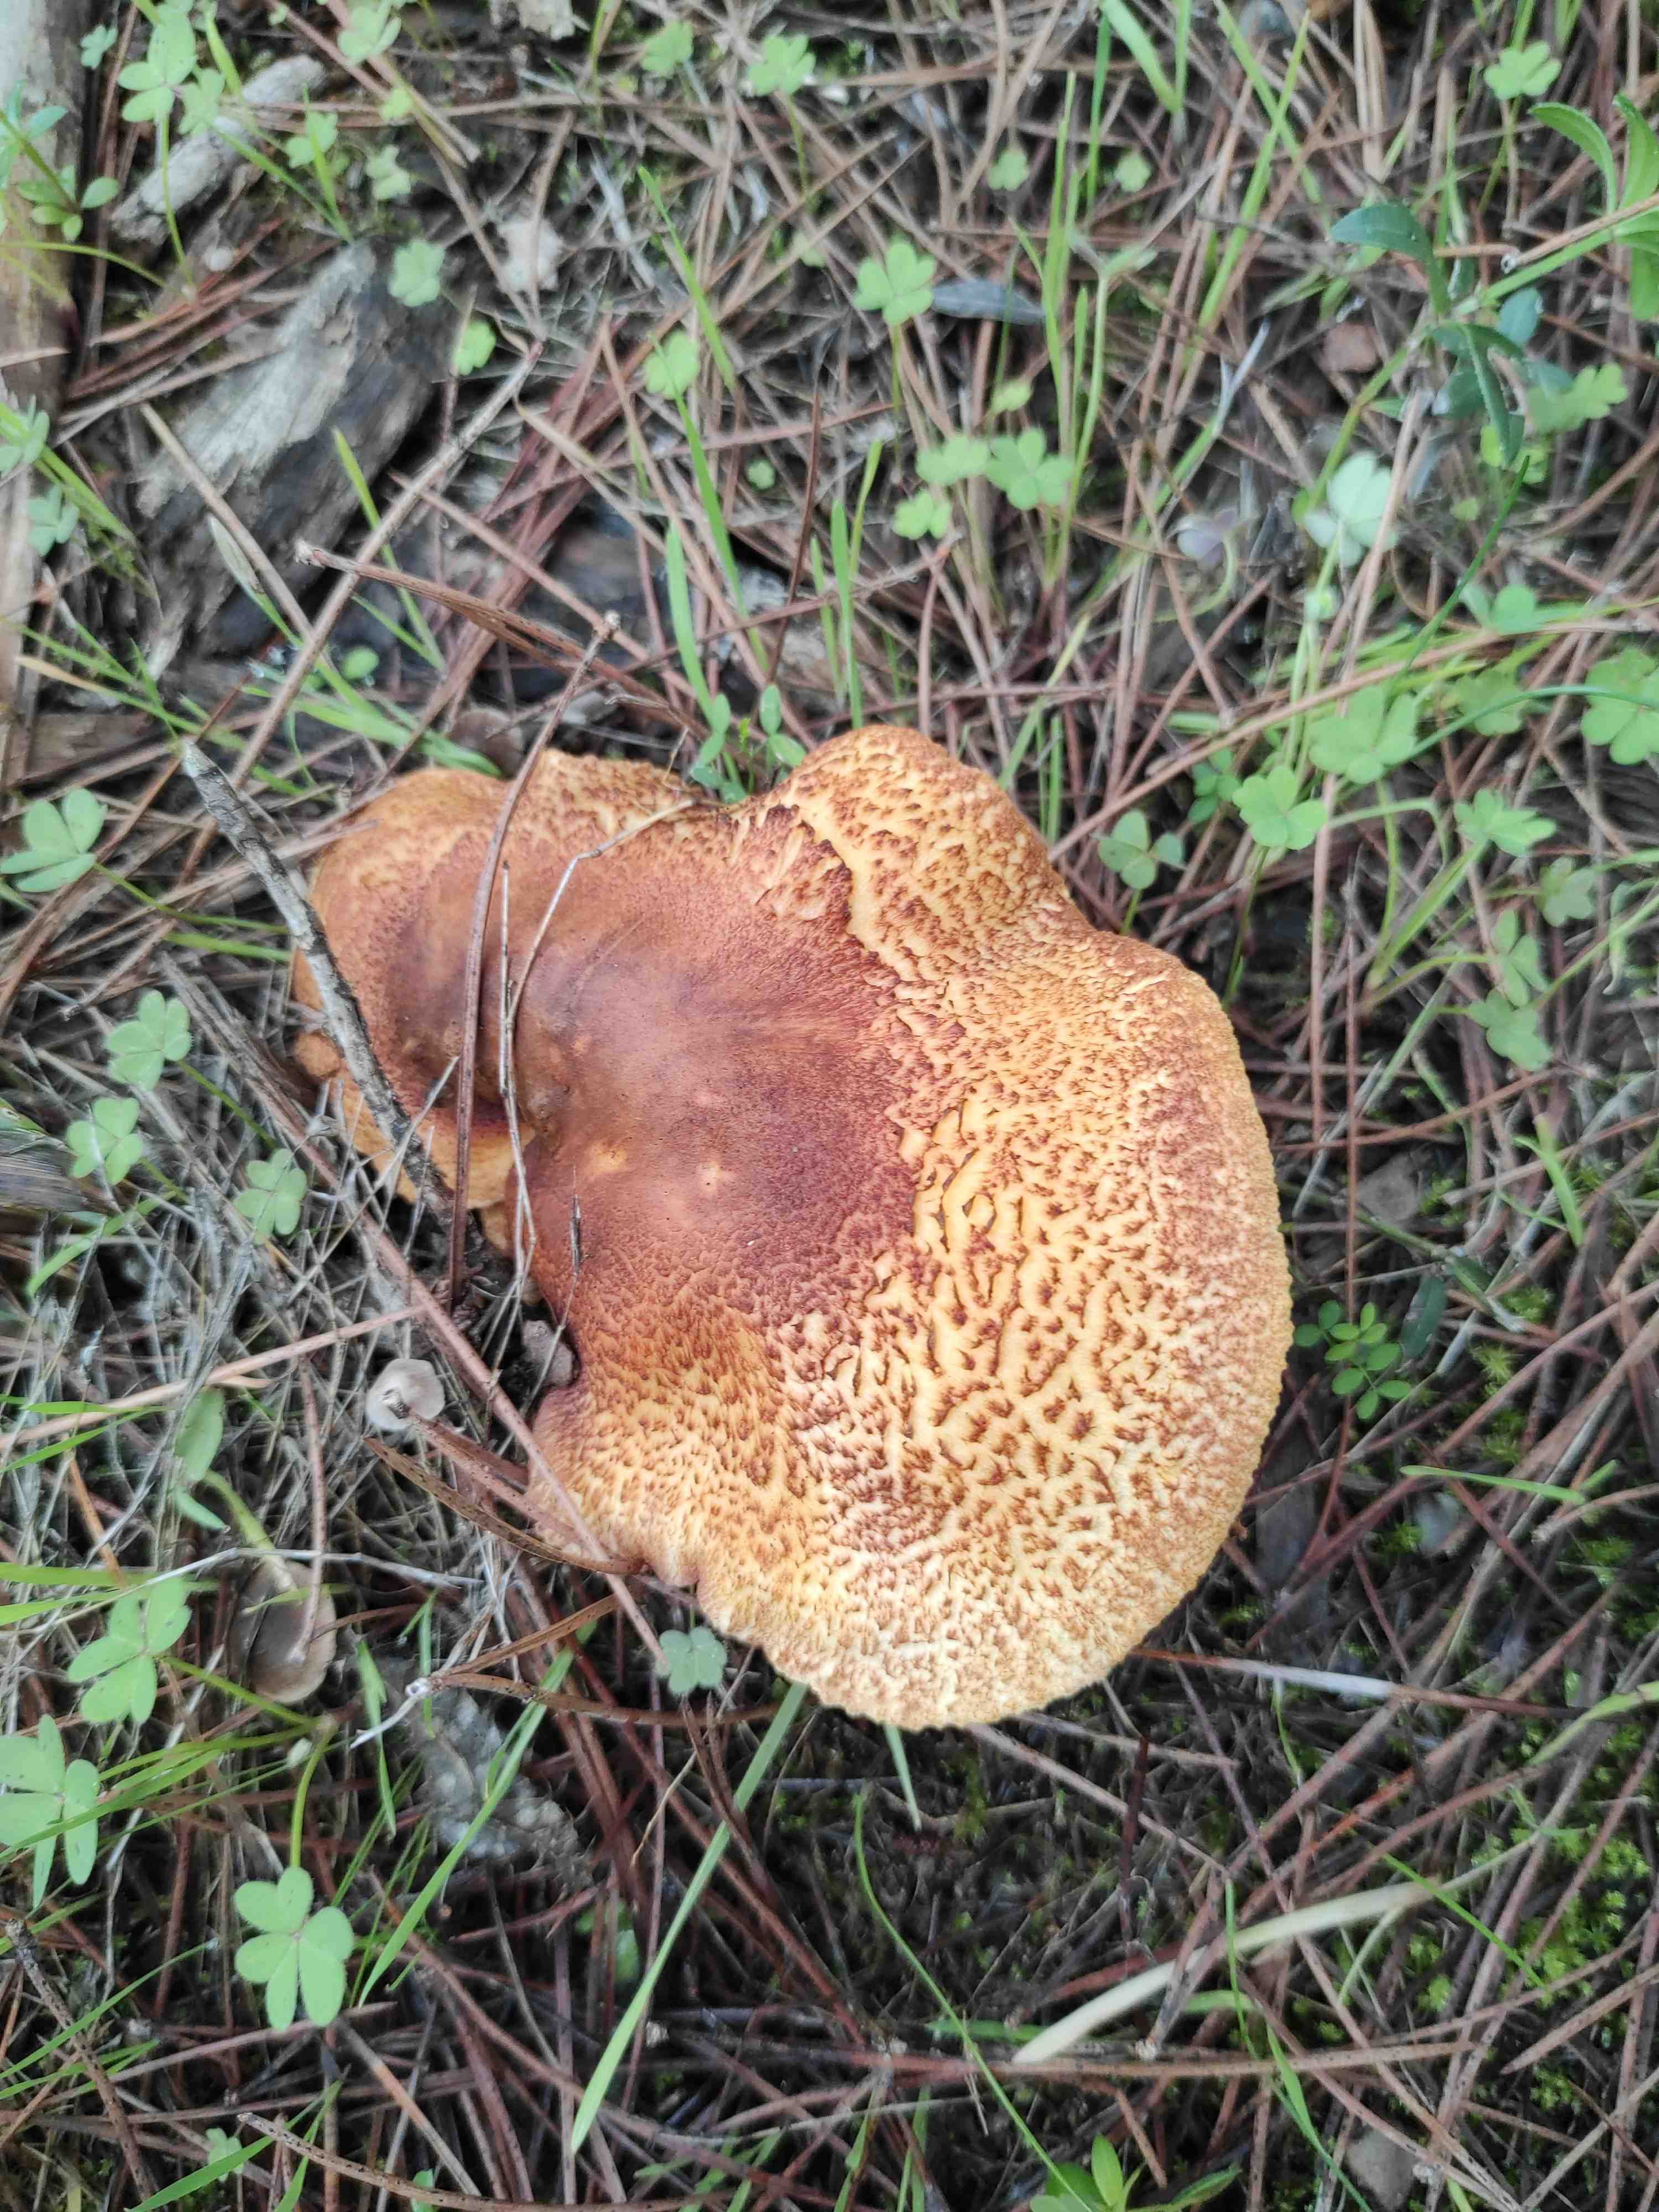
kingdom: Fungi
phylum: Basidiomycota
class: Agaricomycetes
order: Agaricales
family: Tricholomataceae
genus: Tricholomopsis
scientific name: Tricholomopsis rutilans
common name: purpur-væbnerhat
